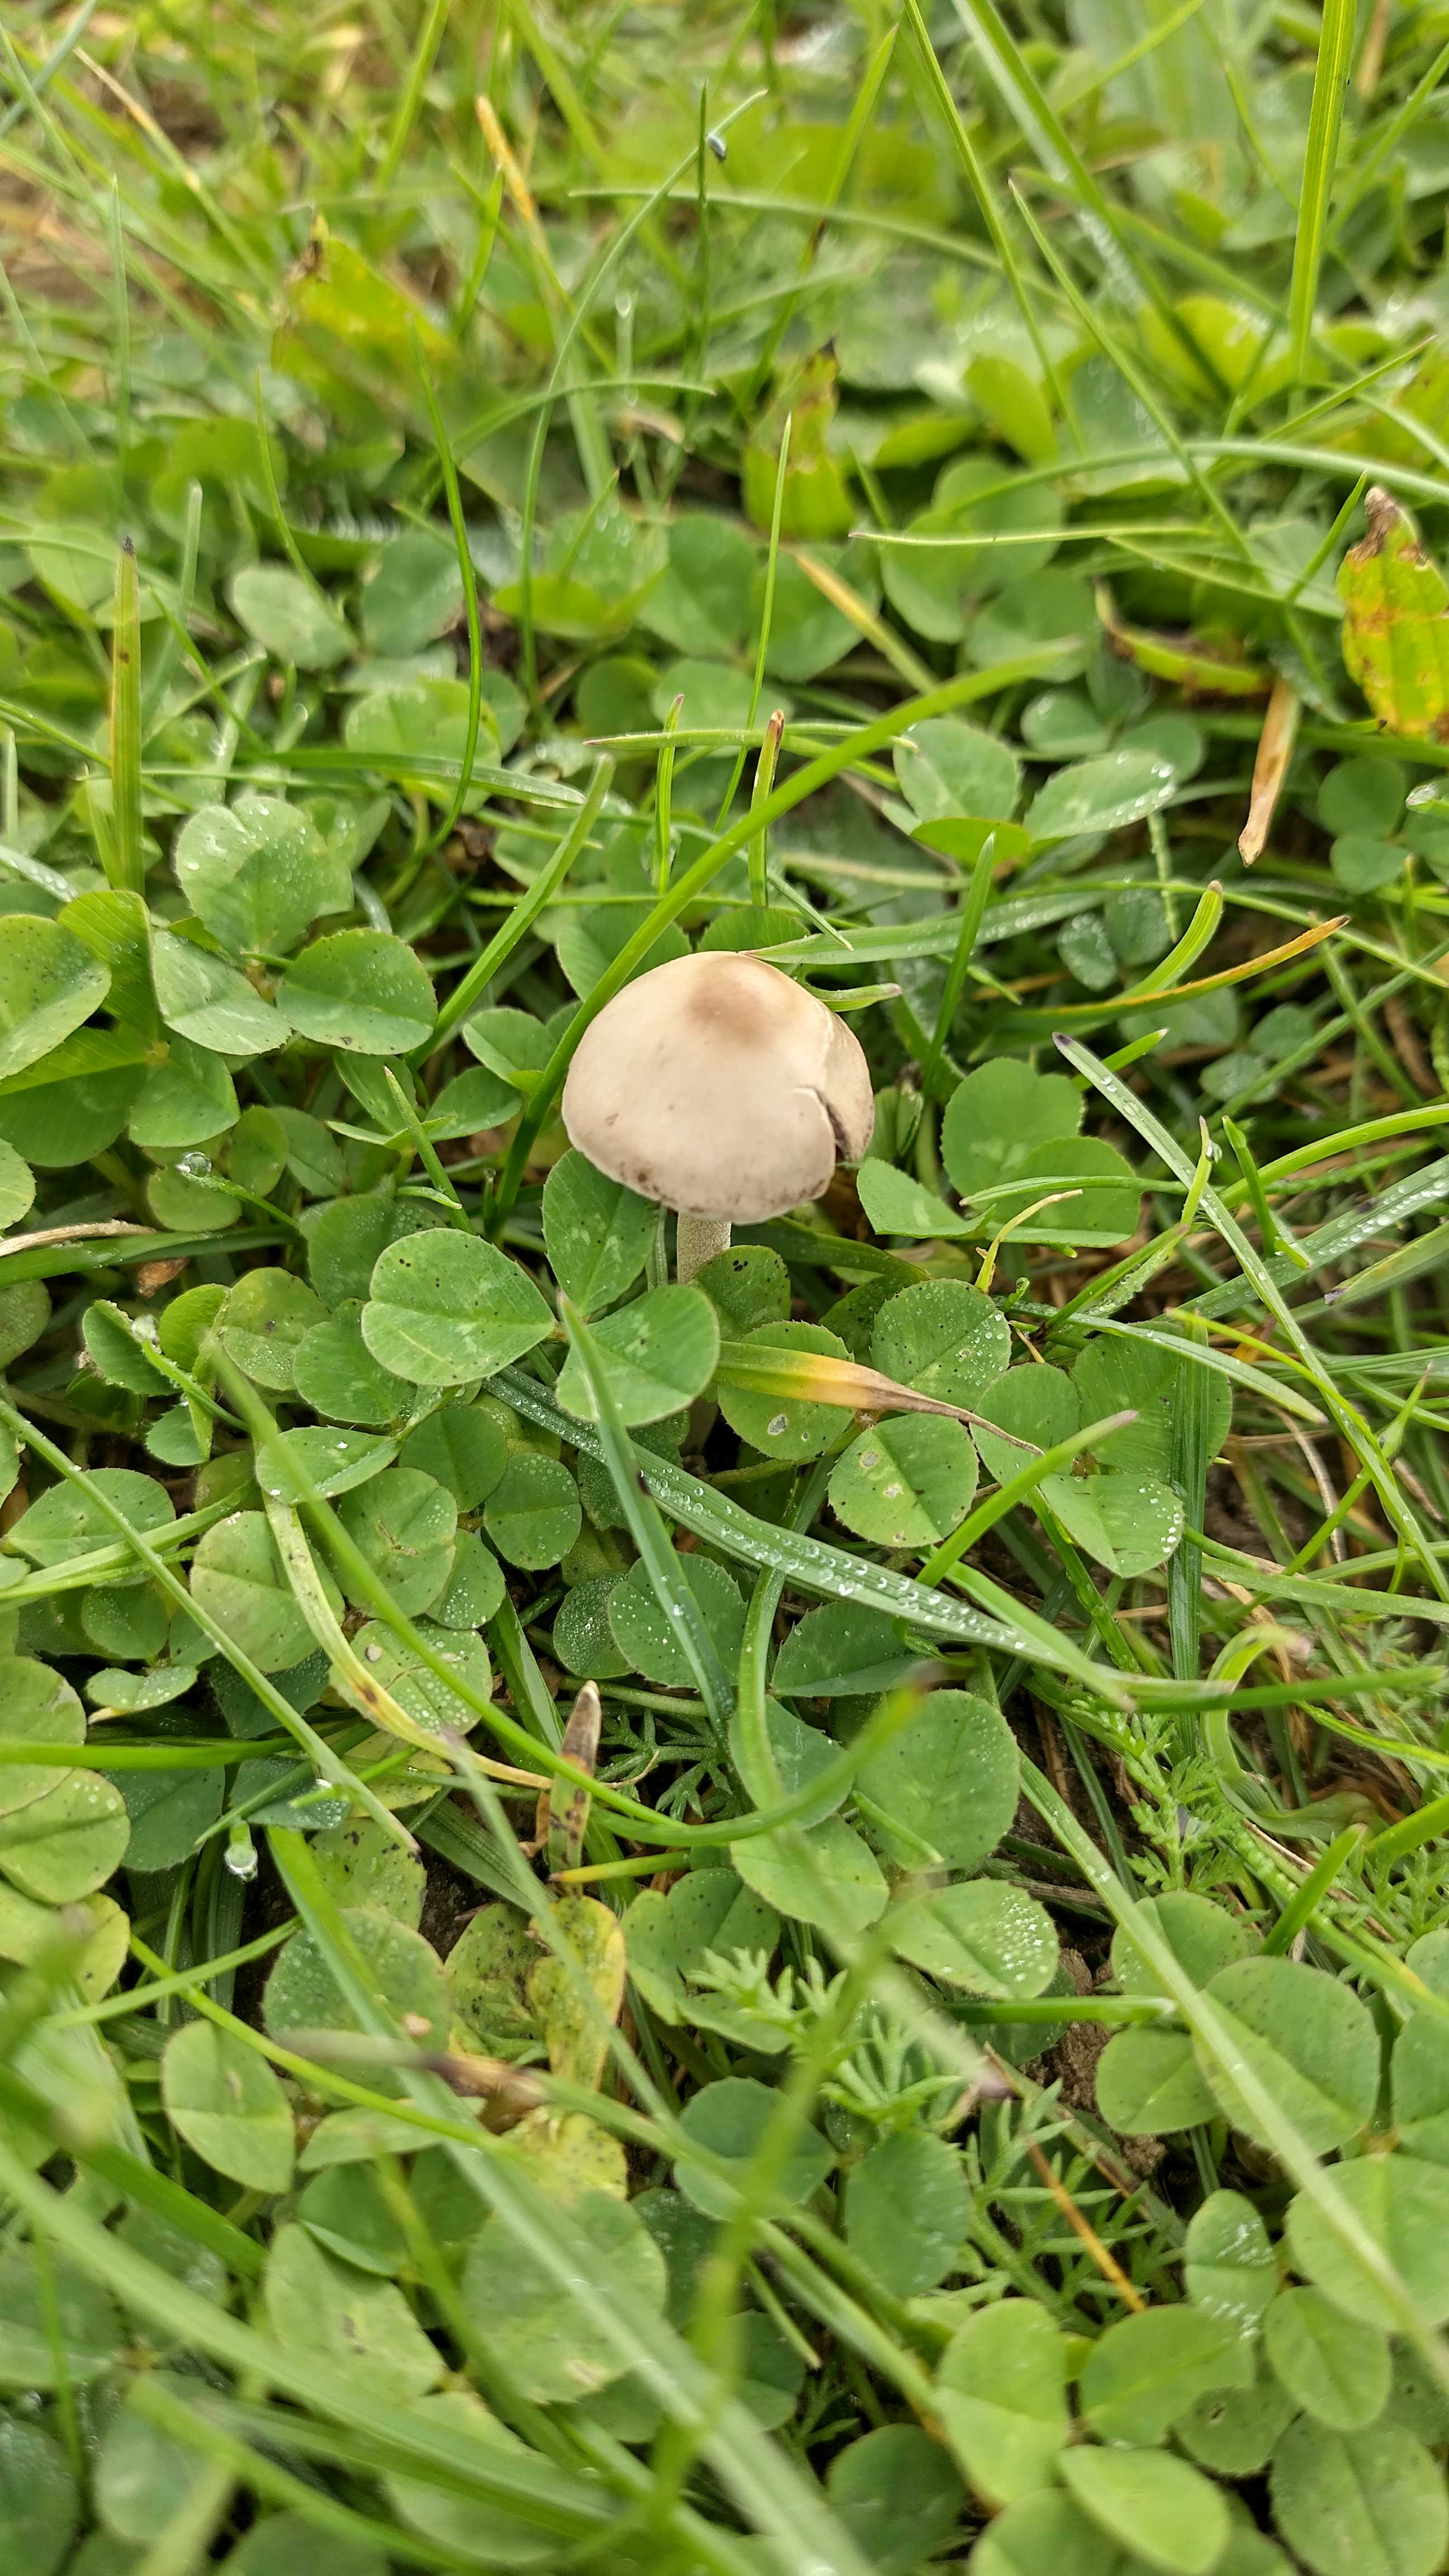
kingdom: Fungi
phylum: Basidiomycota
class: Agaricomycetes
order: Agaricales
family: Bolbitiaceae
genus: Panaeolina
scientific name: Panaeolina foenisecii
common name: høslætsvamp
